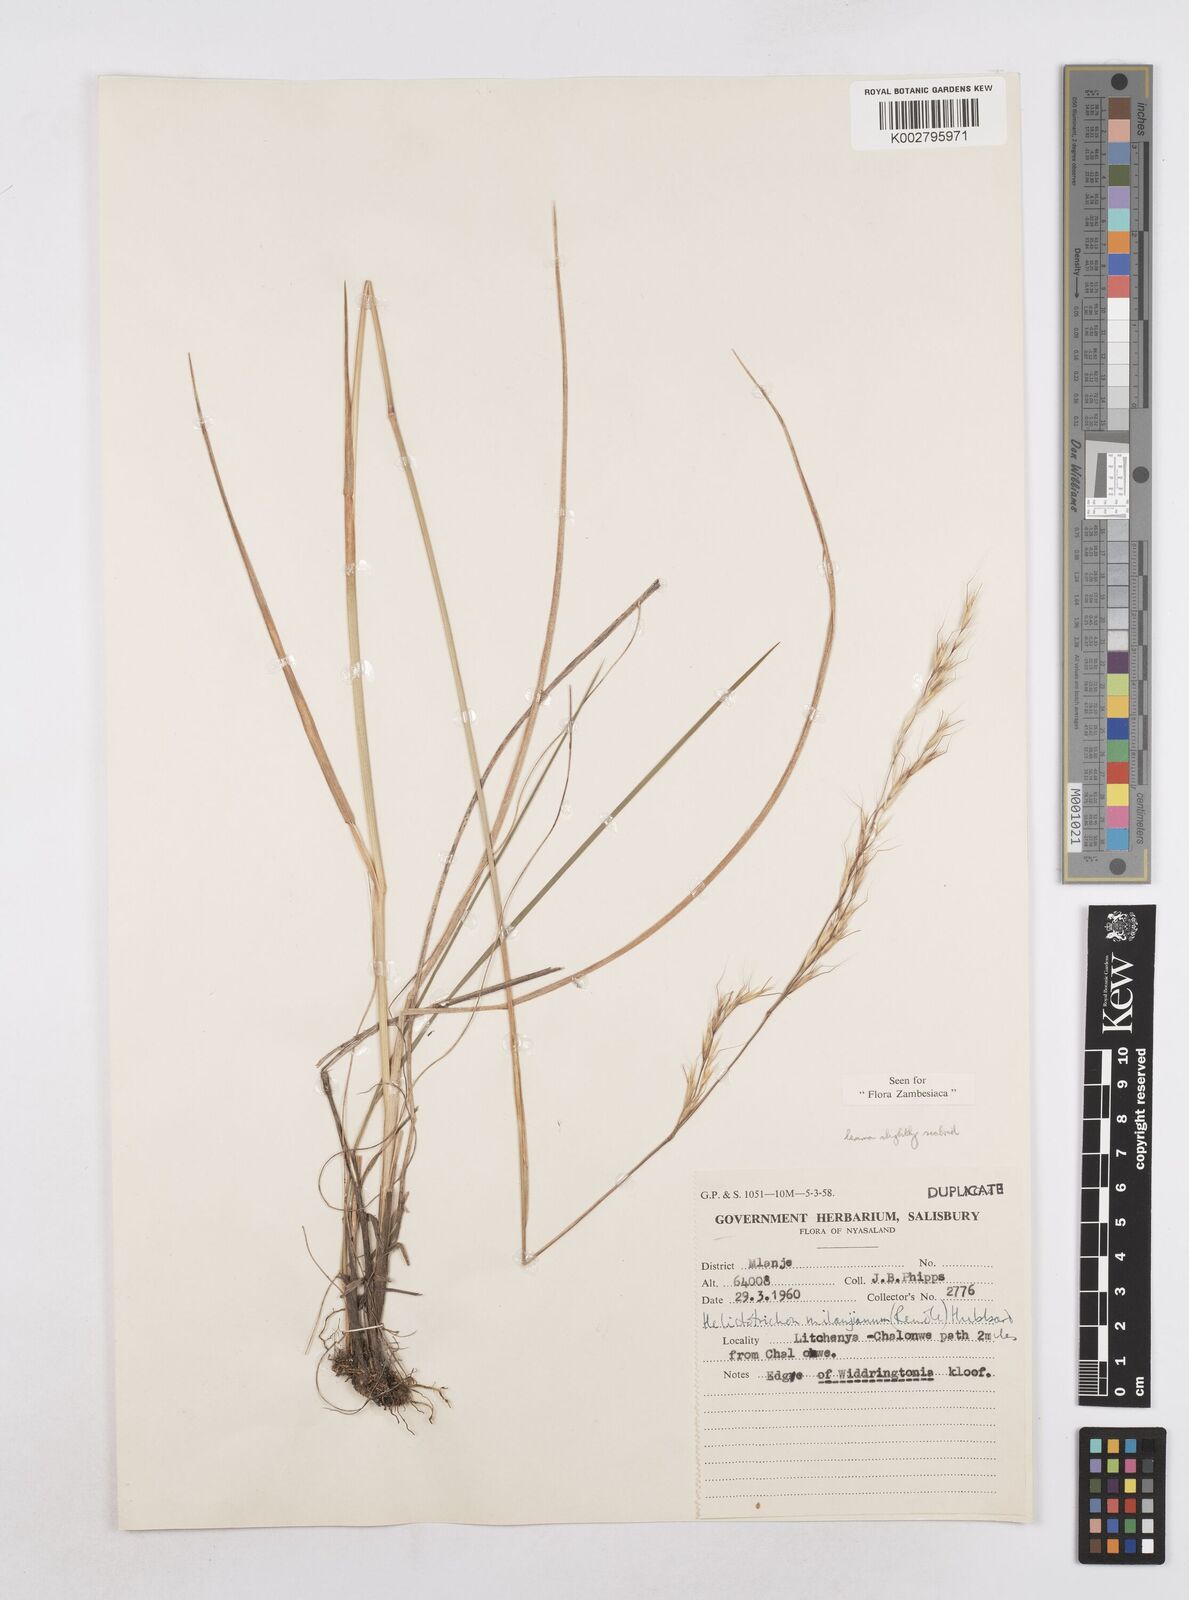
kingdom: Plantae
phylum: Tracheophyta
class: Liliopsida
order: Poales
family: Poaceae
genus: Trisetopsis
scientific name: Trisetopsis milanjiana
